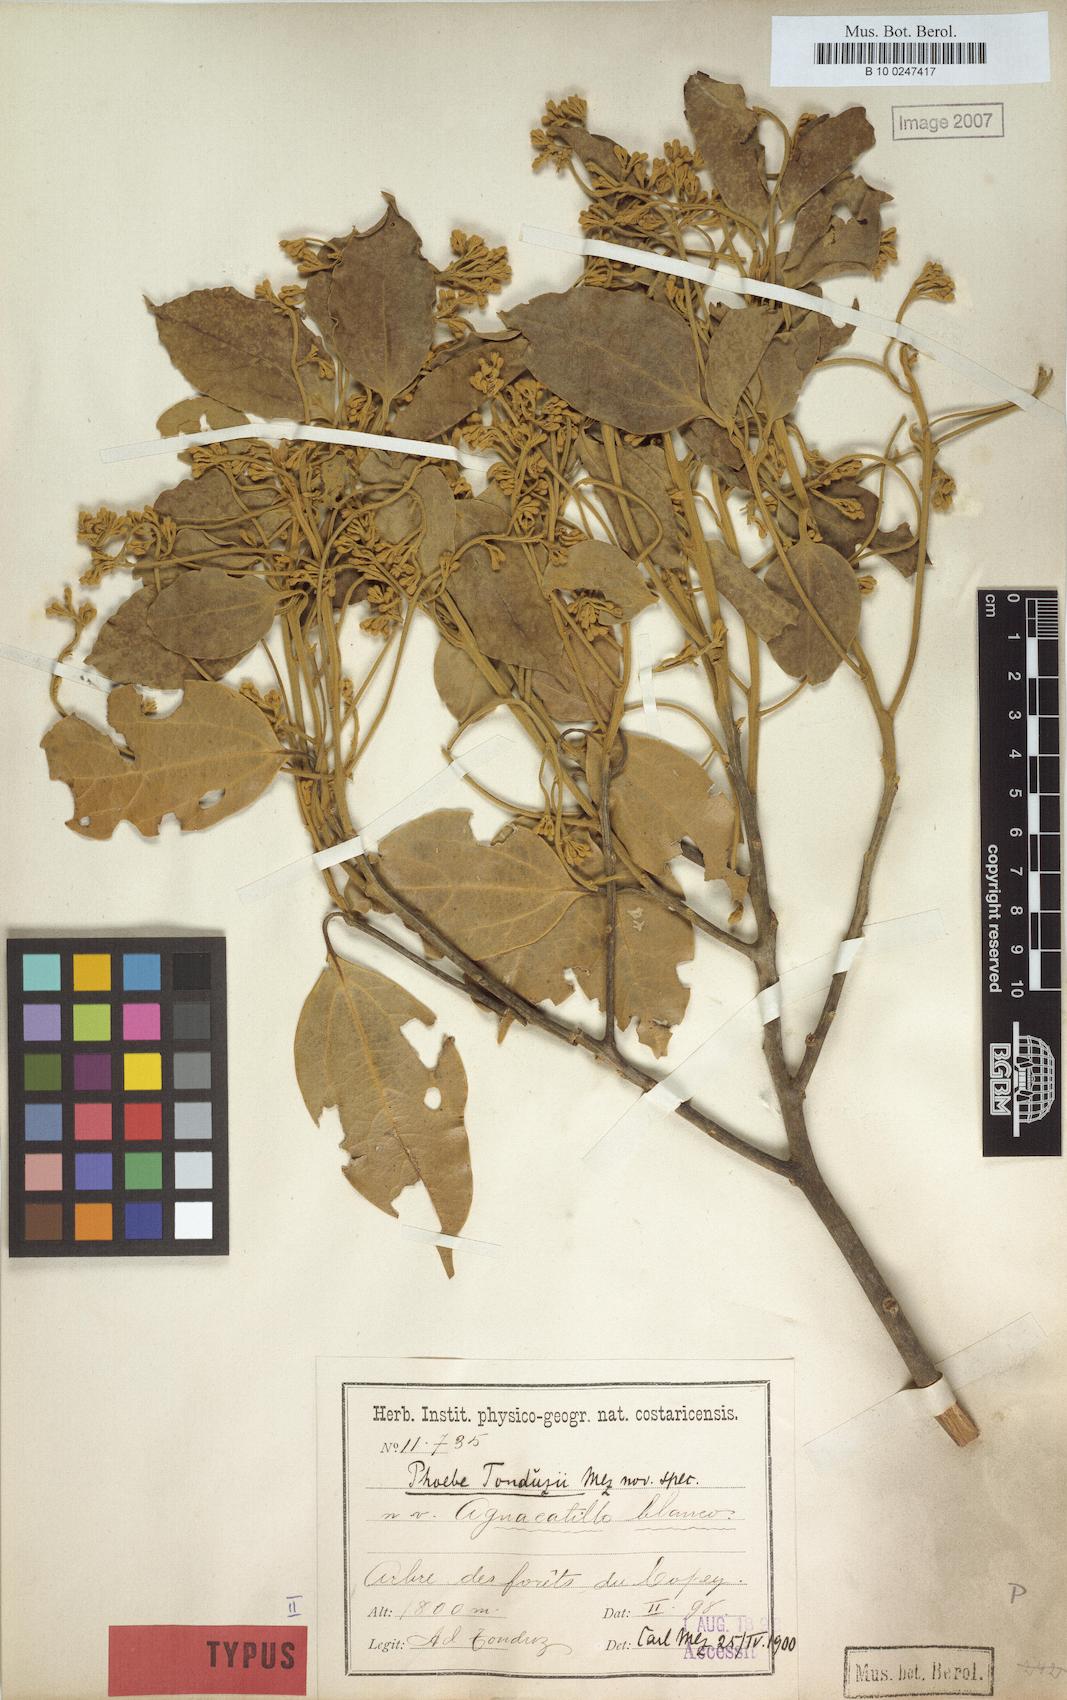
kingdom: Plantae
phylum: Tracheophyta
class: Magnoliopsida
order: Laurales
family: Lauraceae
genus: Aiouea
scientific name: Aiouea tonduzii
